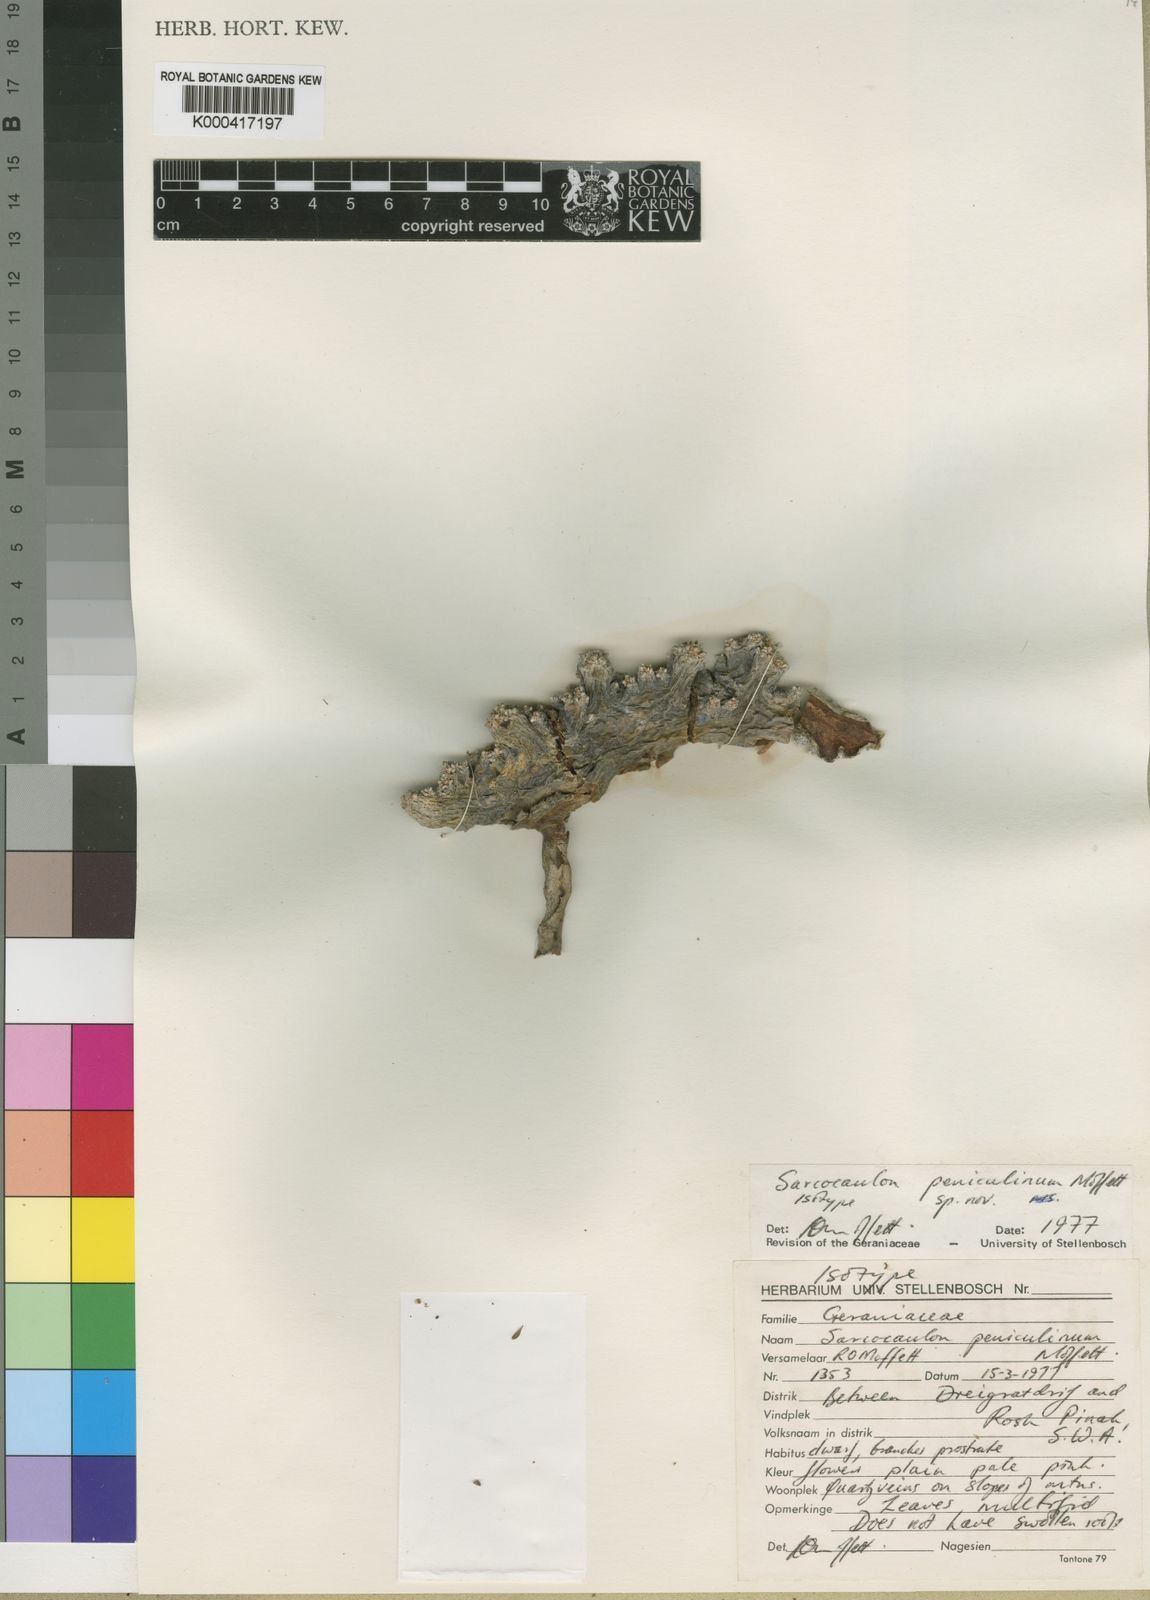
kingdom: Plantae
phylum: Tracheophyta
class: Magnoliopsida
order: Geraniales
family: Geraniaceae
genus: Monsonia
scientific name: Monsonia peniculina
